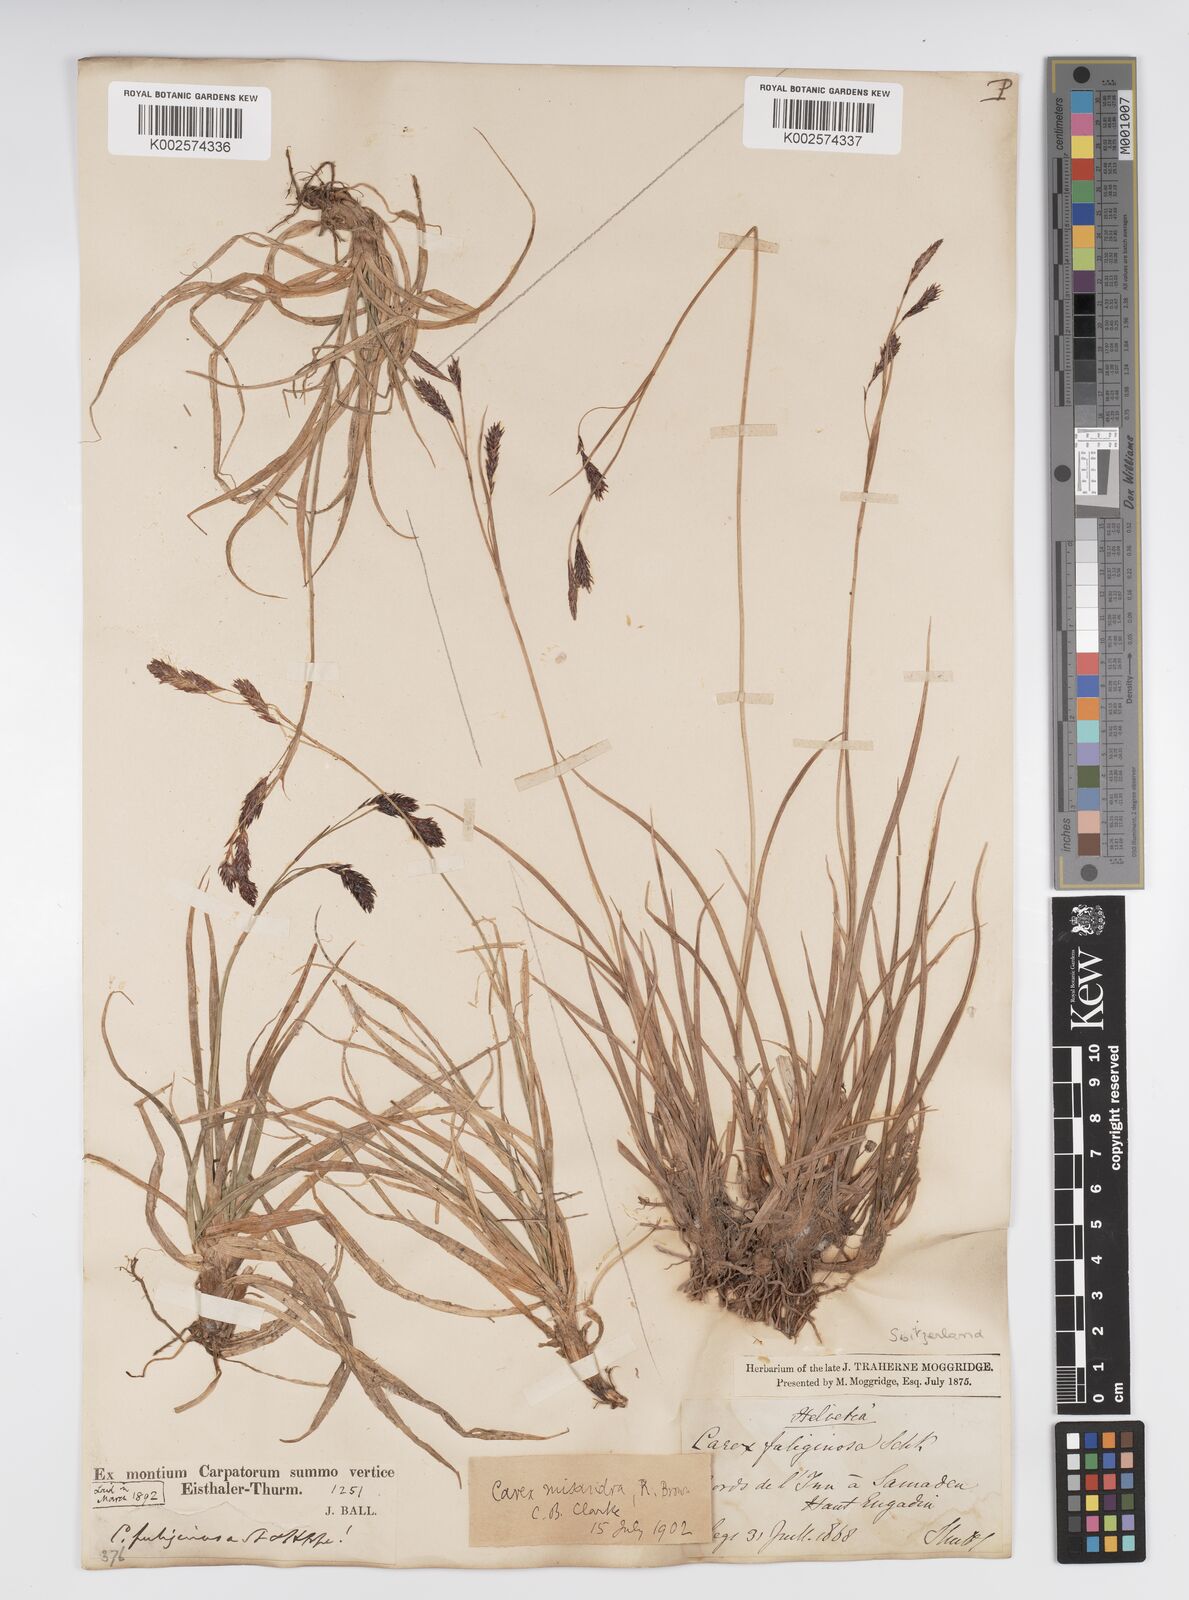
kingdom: Plantae
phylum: Tracheophyta
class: Liliopsida
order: Poales
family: Cyperaceae
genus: Carex
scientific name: Carex fuliginosa
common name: Few-flowered sedge
